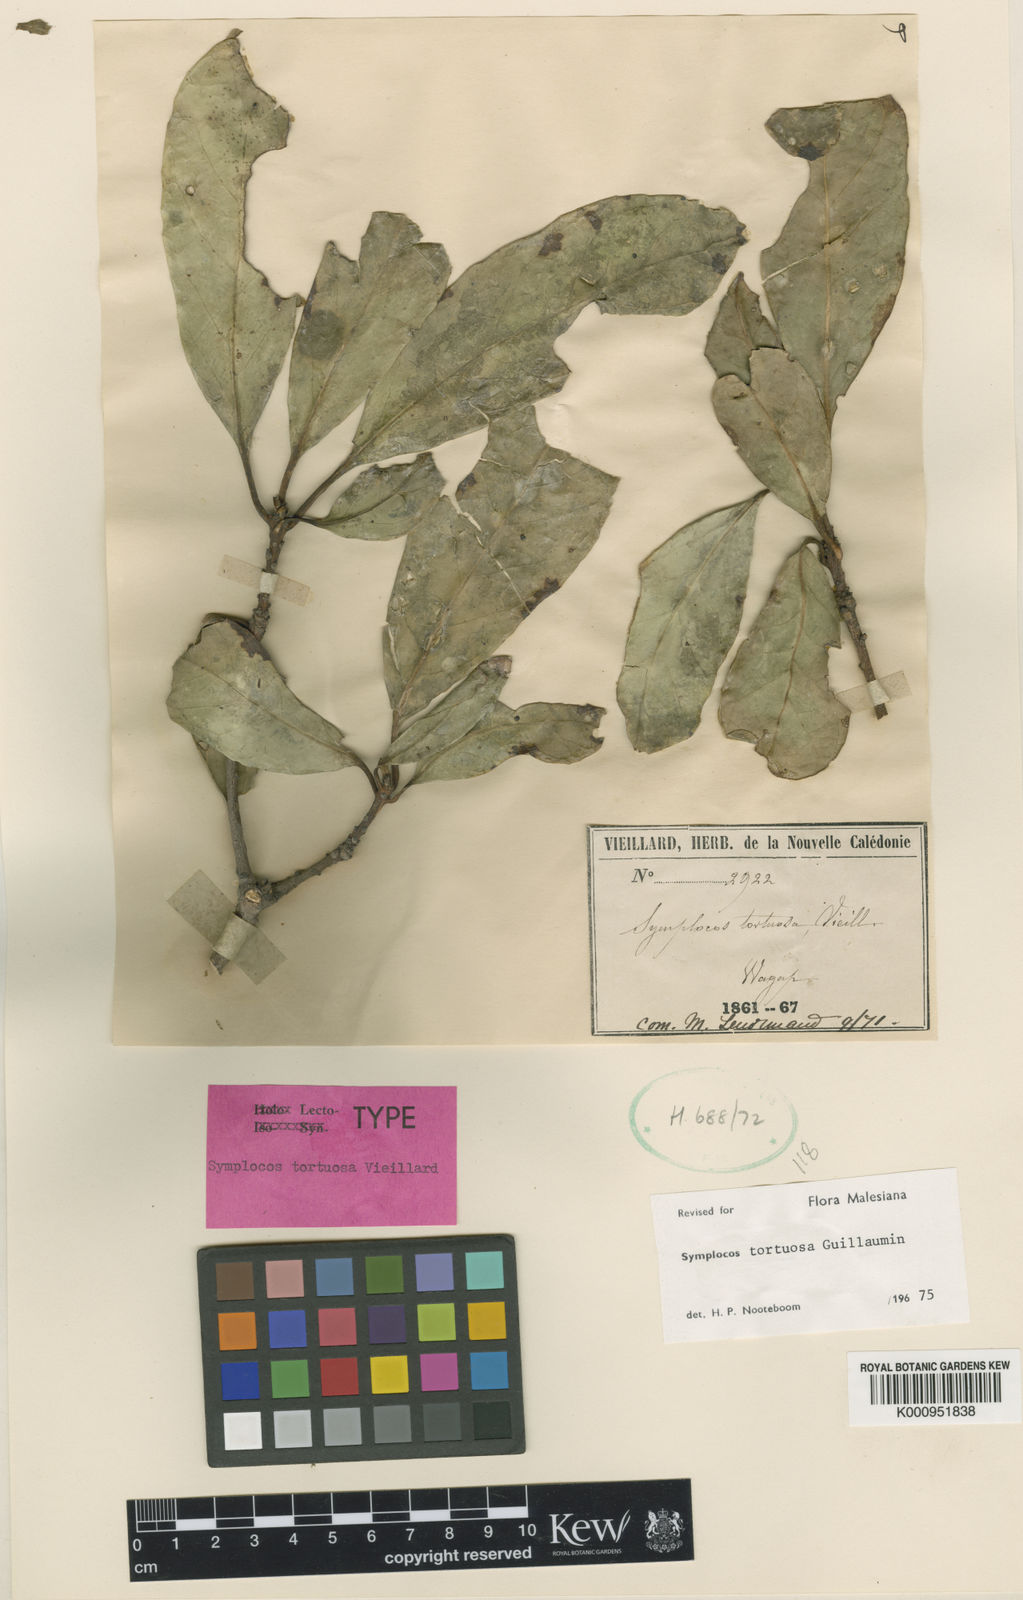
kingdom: Plantae
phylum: Tracheophyta
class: Magnoliopsida
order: Ericales
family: Symplocaceae
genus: Symplocos
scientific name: Symplocos montana
